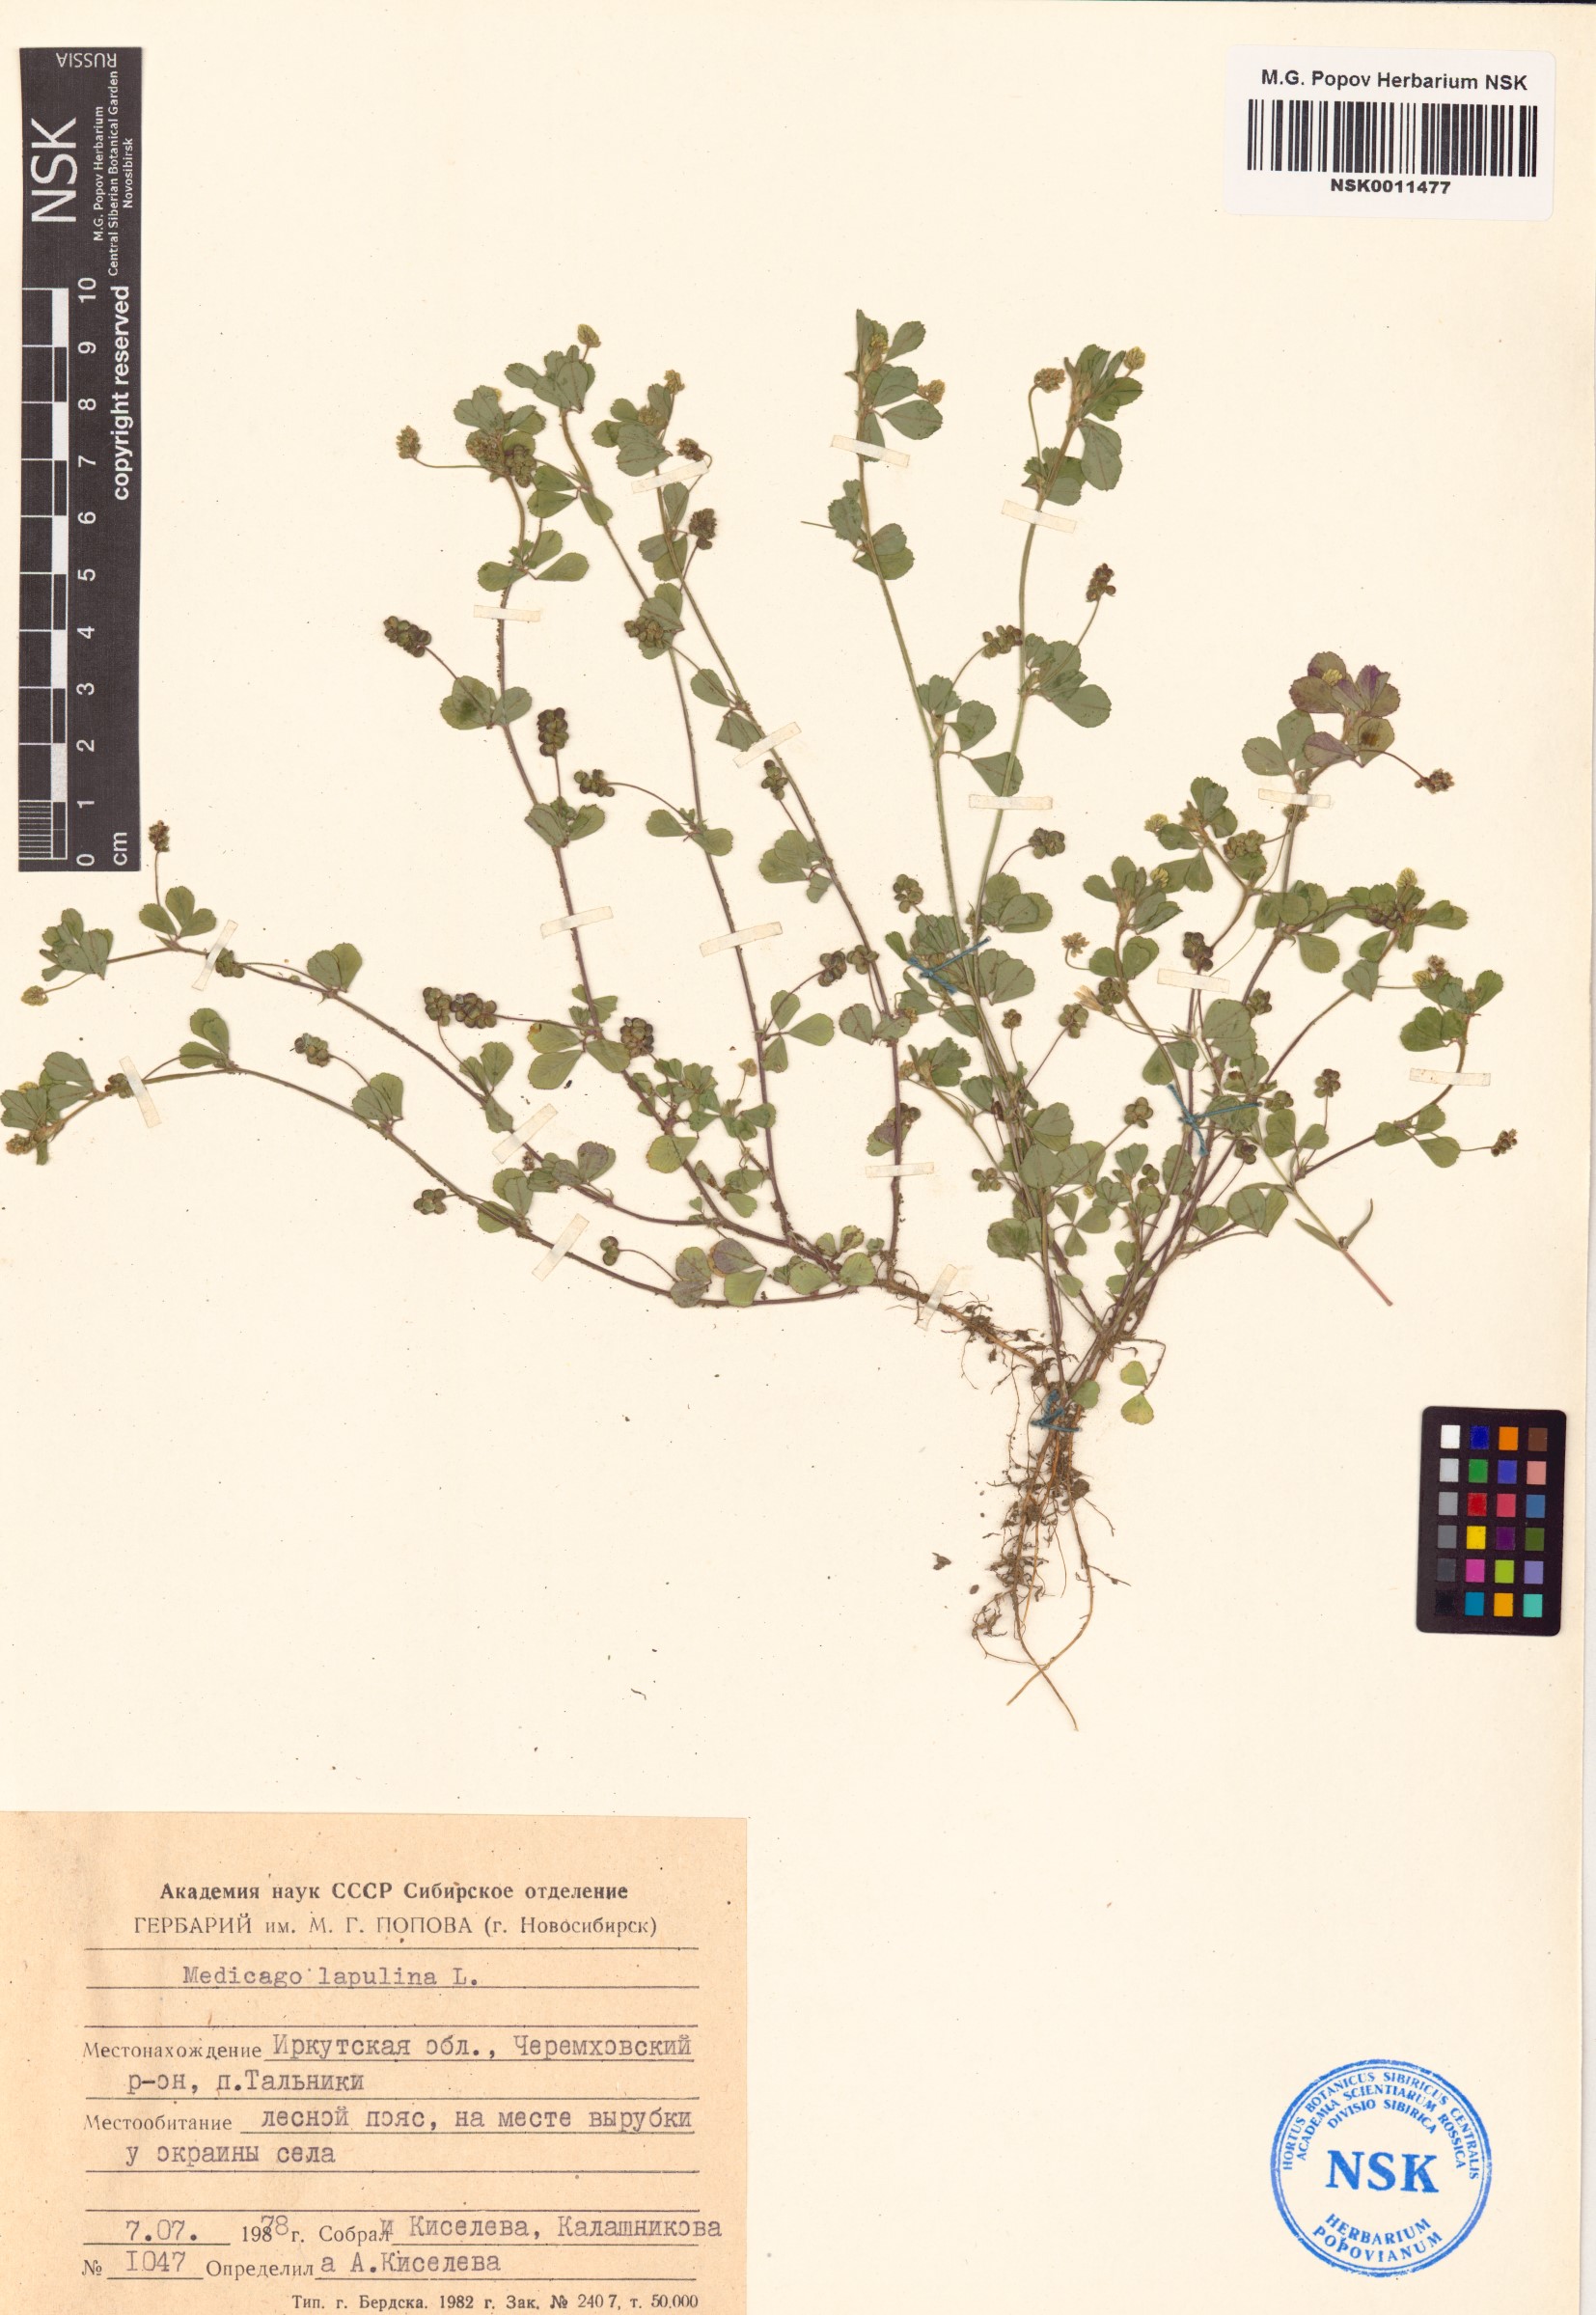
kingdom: Plantae
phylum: Tracheophyta
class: Magnoliopsida
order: Fabales
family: Fabaceae
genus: Medicago
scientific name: Medicago lupulina
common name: Black medick
